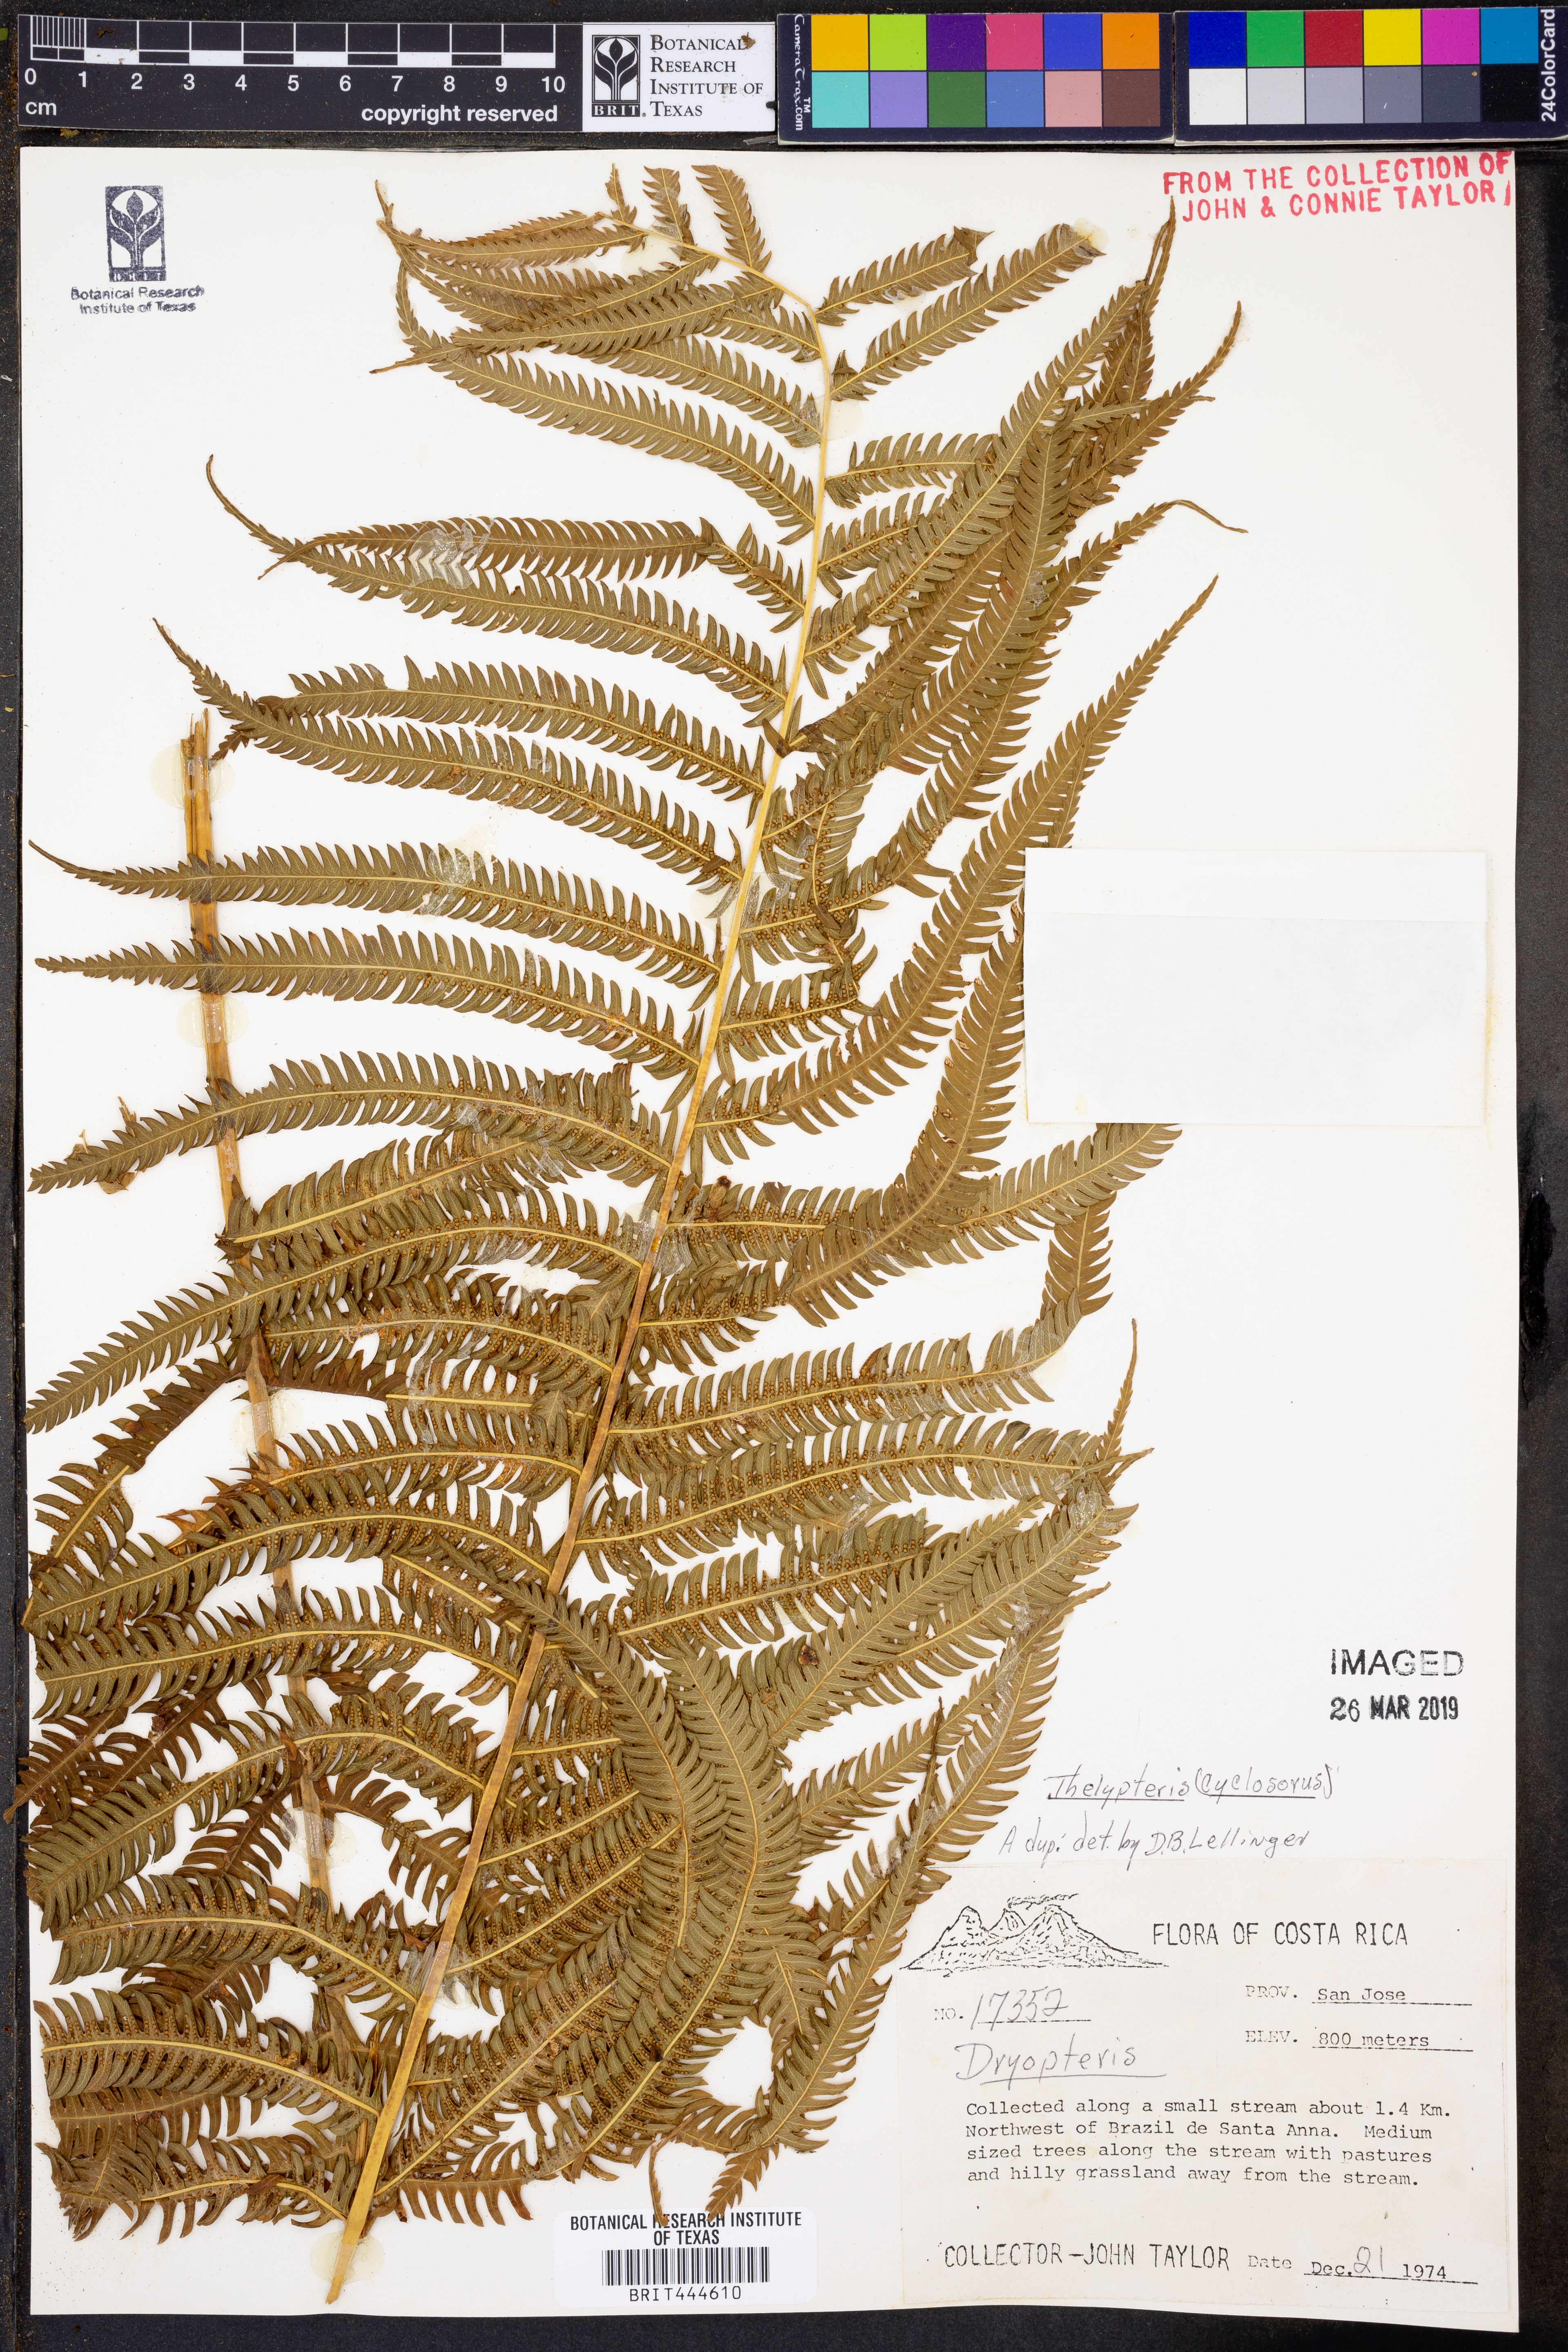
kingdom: Plantae
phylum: Tracheophyta
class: Polypodiopsida
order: Polypodiales
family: Thelypteridaceae
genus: Thelypteris
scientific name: Thelypteris
